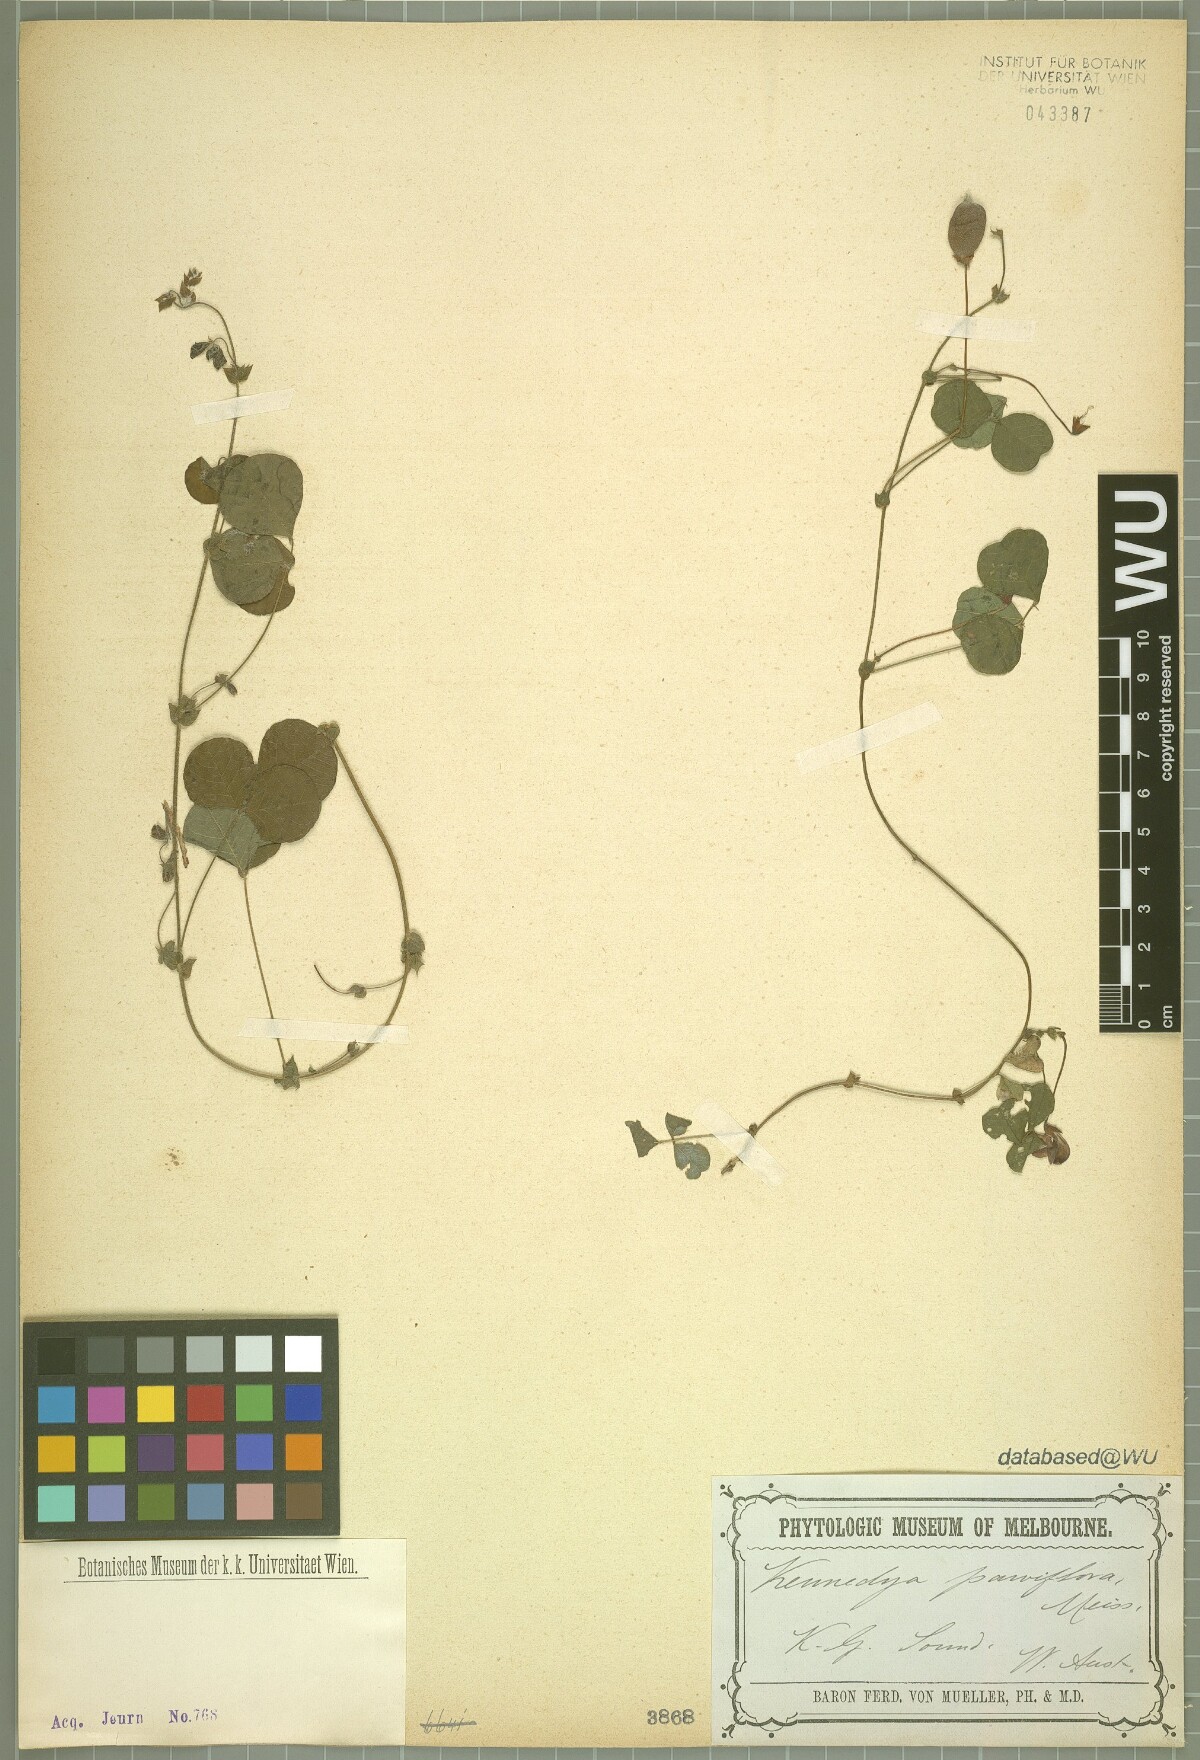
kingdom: Plantae
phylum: Tracheophyta
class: Magnoliopsida
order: Fabales
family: Fabaceae
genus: Kennedia
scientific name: Kennedia parviflora
